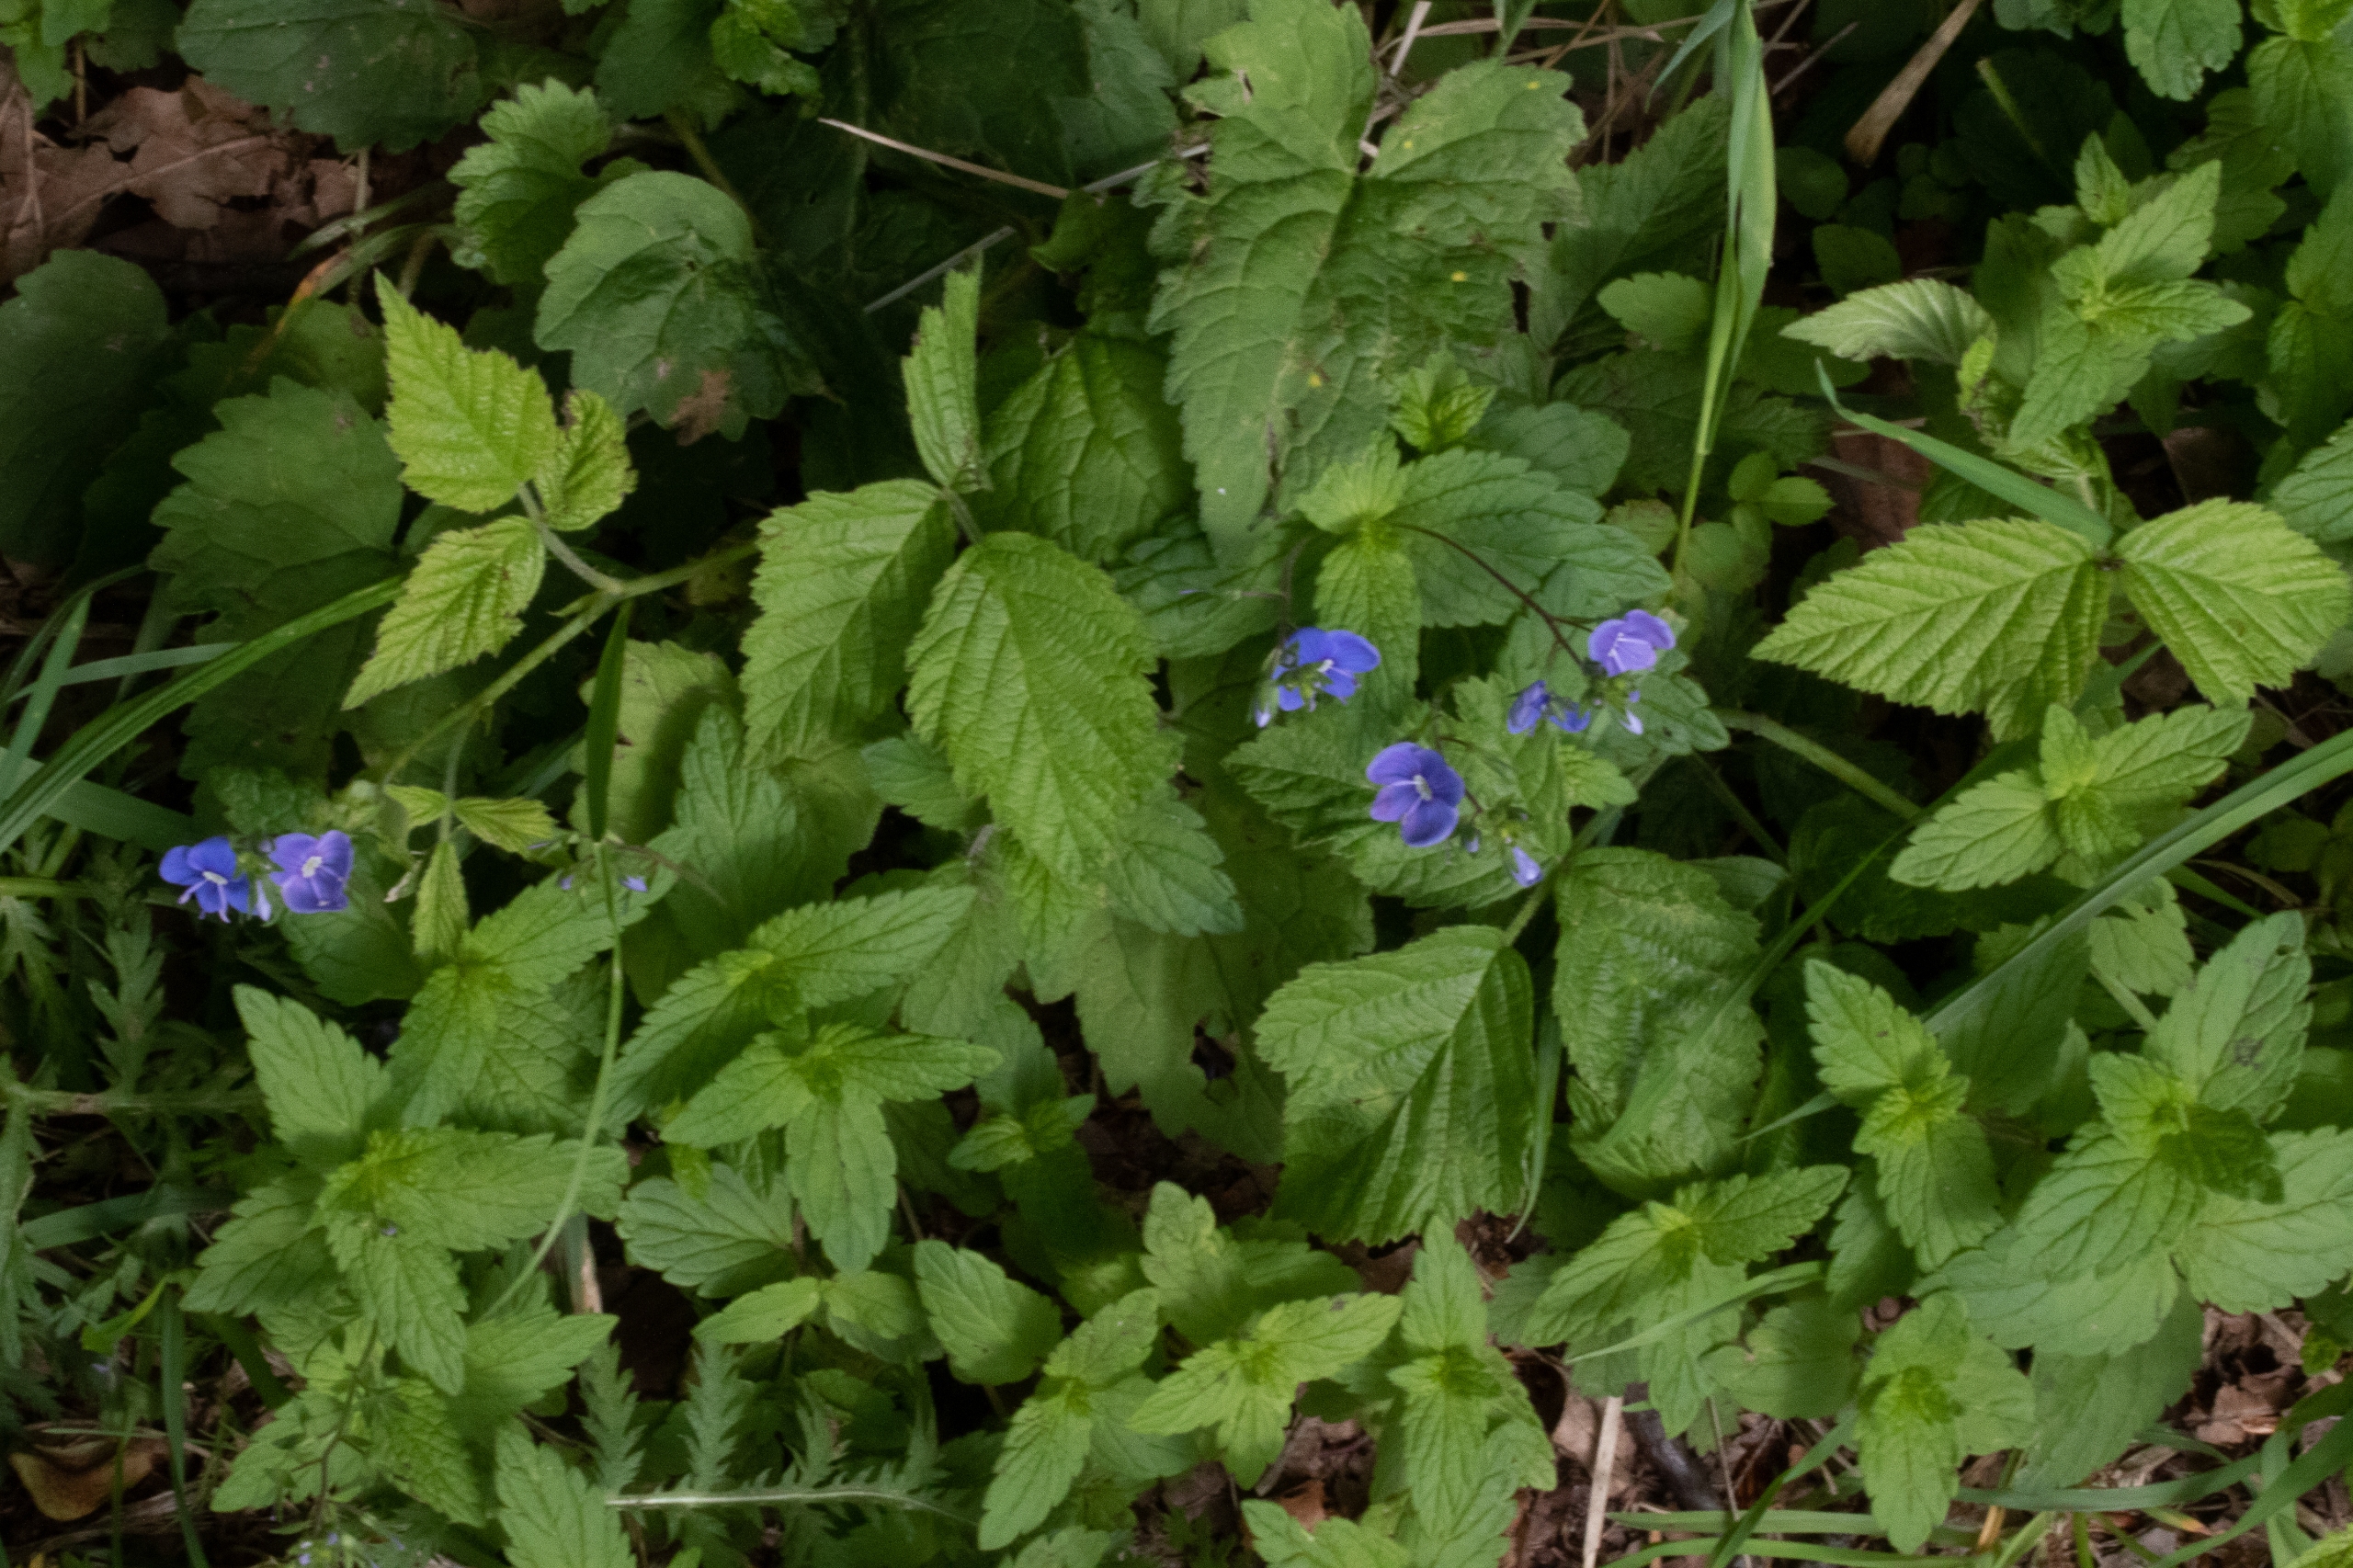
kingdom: Plantae
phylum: Tracheophyta
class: Magnoliopsida
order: Lamiales
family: Plantaginaceae
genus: Veronica
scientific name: Veronica chamaedrys
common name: Tveskægget ærenpris
